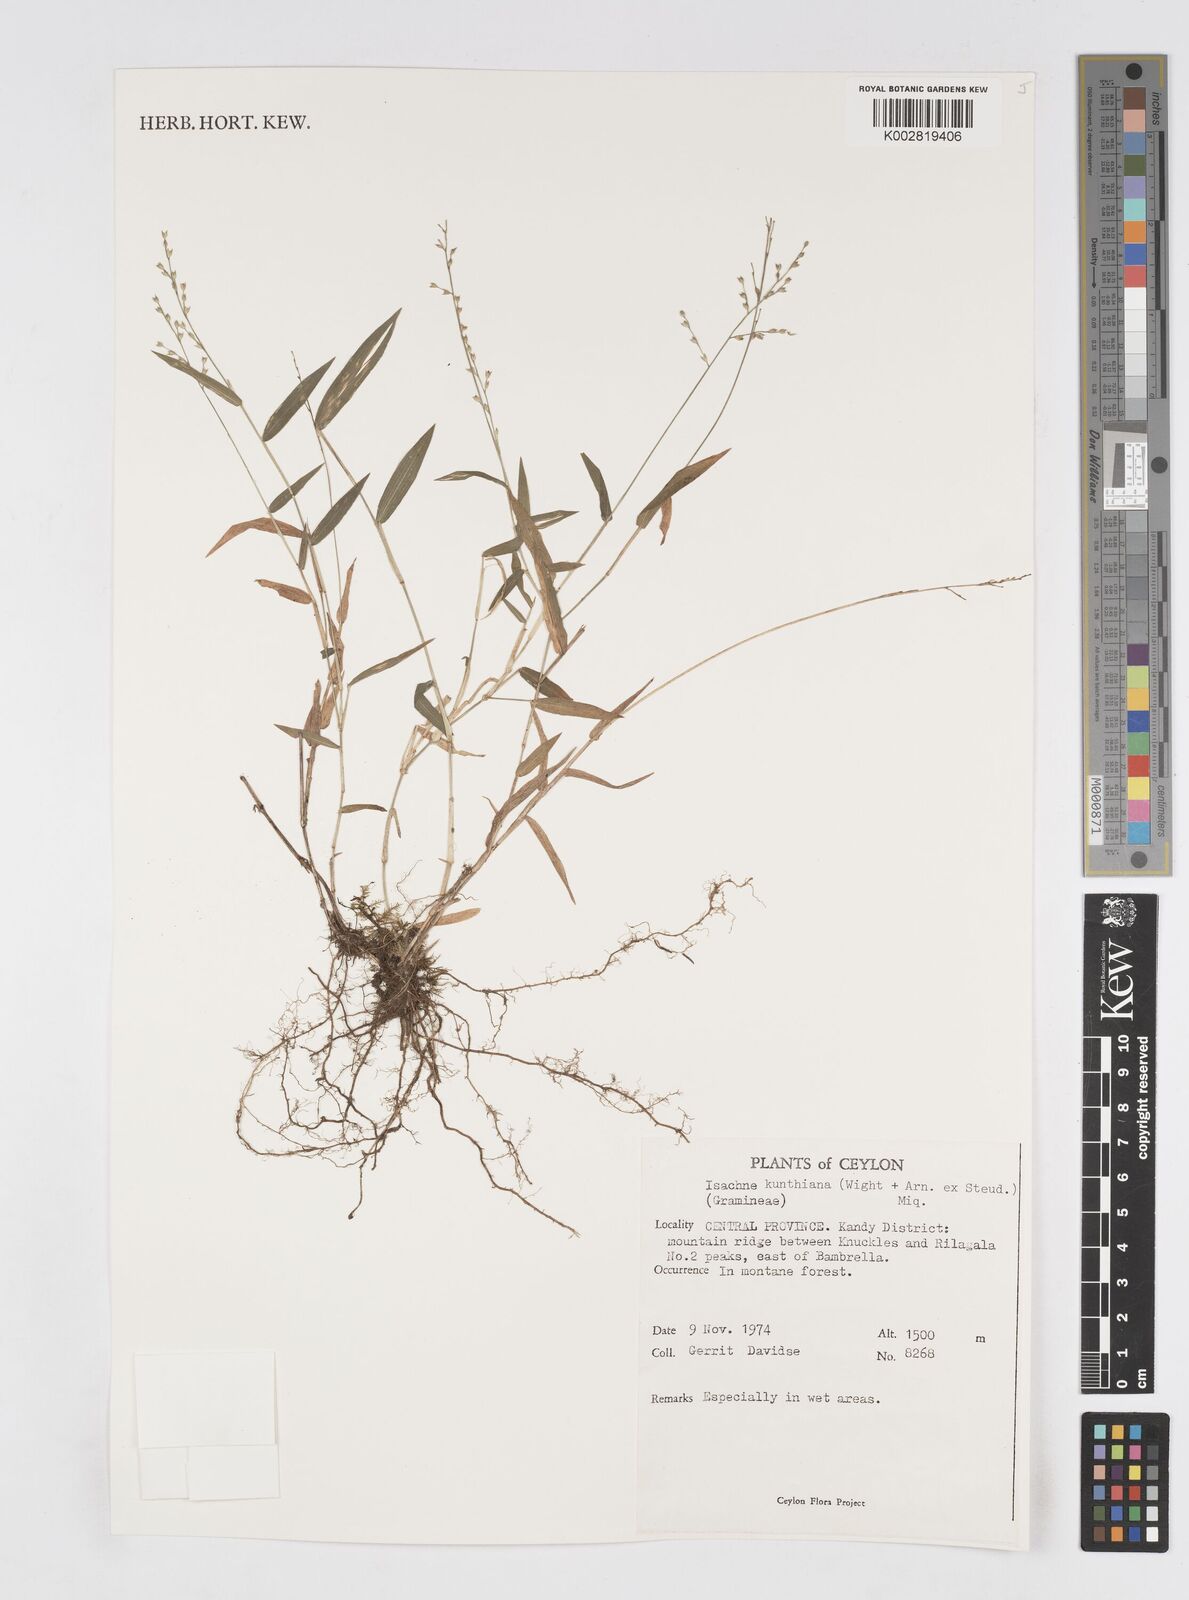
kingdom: Plantae
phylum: Tracheophyta
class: Liliopsida
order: Poales
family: Poaceae
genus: Isachne
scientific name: Isachne kunthiana
